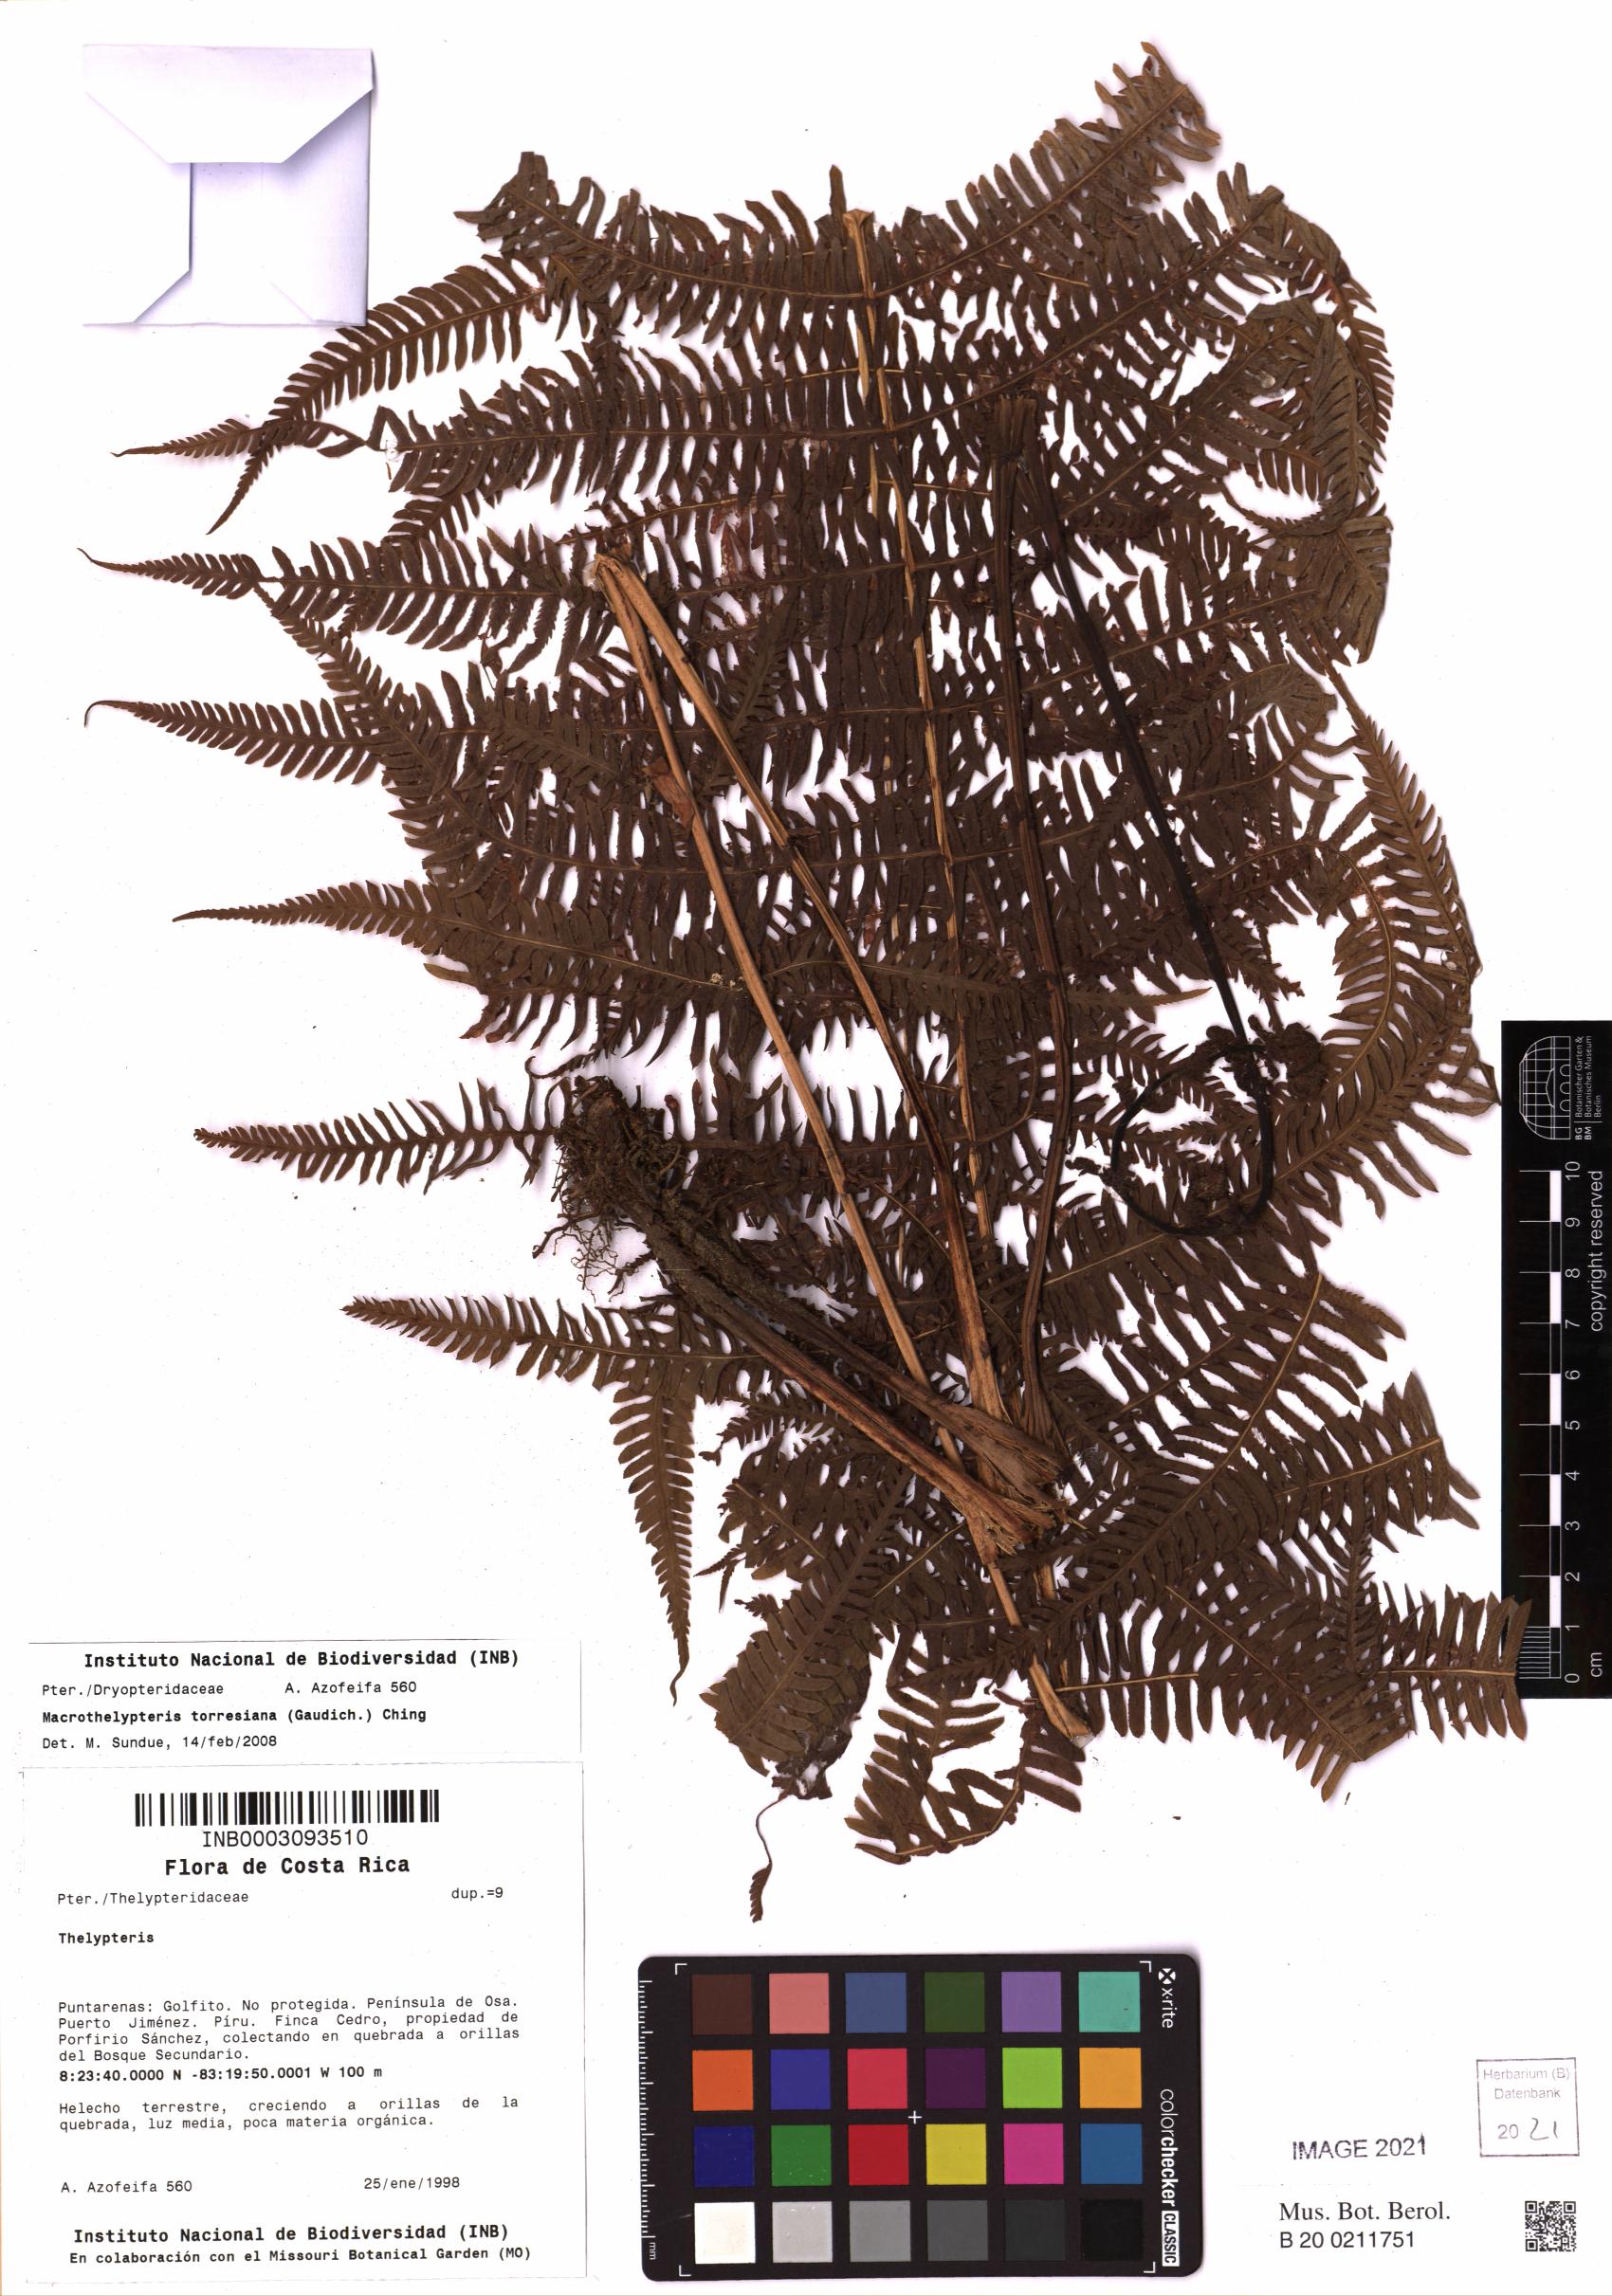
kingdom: Plantae
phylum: Tracheophyta
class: Polypodiopsida
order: Polypodiales
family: Thelypteridaceae
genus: Macrothelypteris
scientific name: Macrothelypteris torresiana
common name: Swordfern
